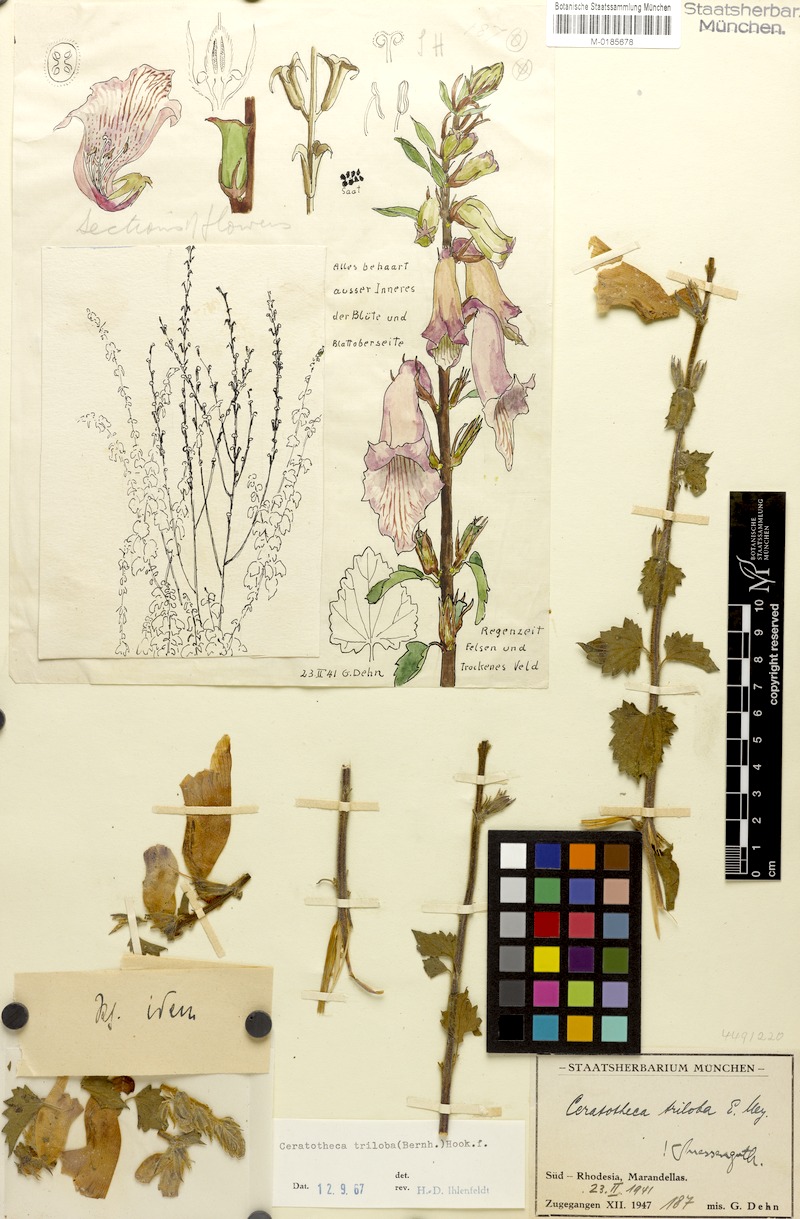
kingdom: Plantae
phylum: Tracheophyta
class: Magnoliopsida
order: Lamiales
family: Pedaliaceae
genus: Sesamum
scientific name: Sesamum trilobum
